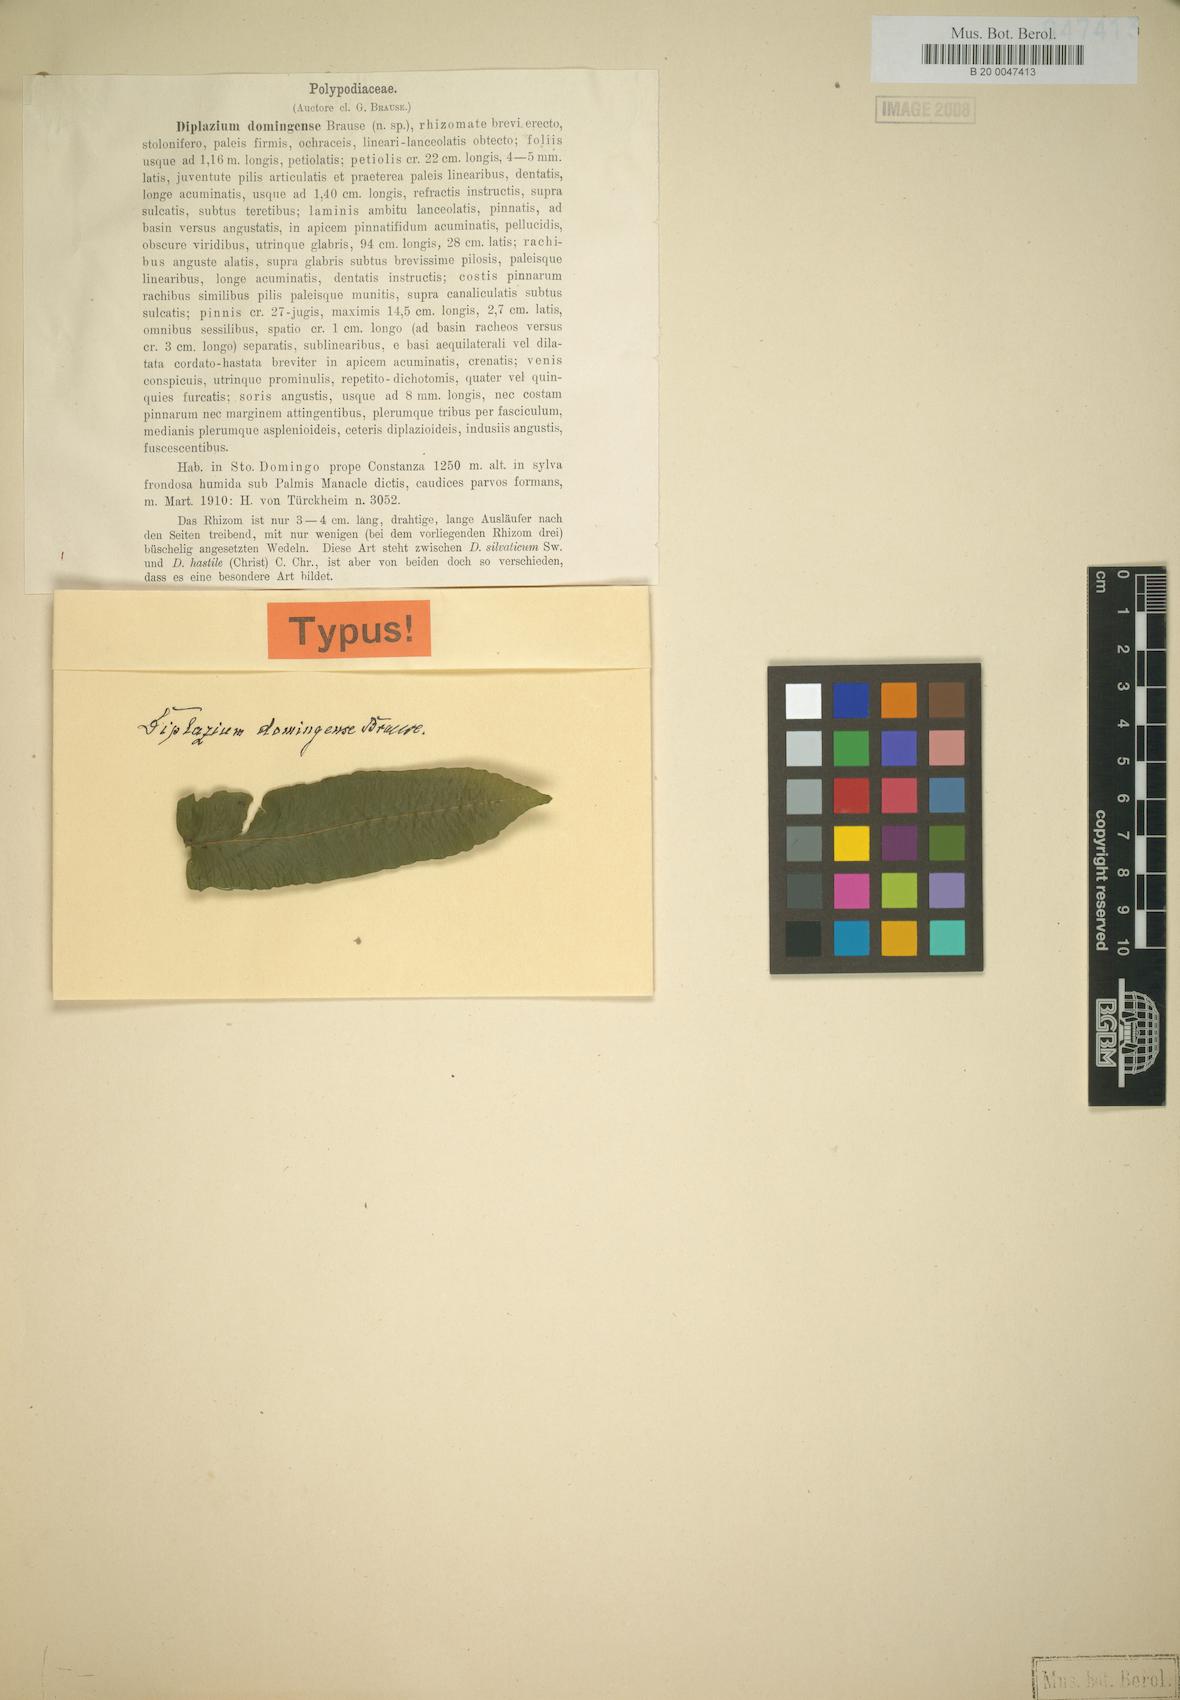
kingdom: Plantae
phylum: Tracheophyta
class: Polypodiopsida
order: Polypodiales
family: Athyriaceae
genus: Diplazium
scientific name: Diplazium centripetale
